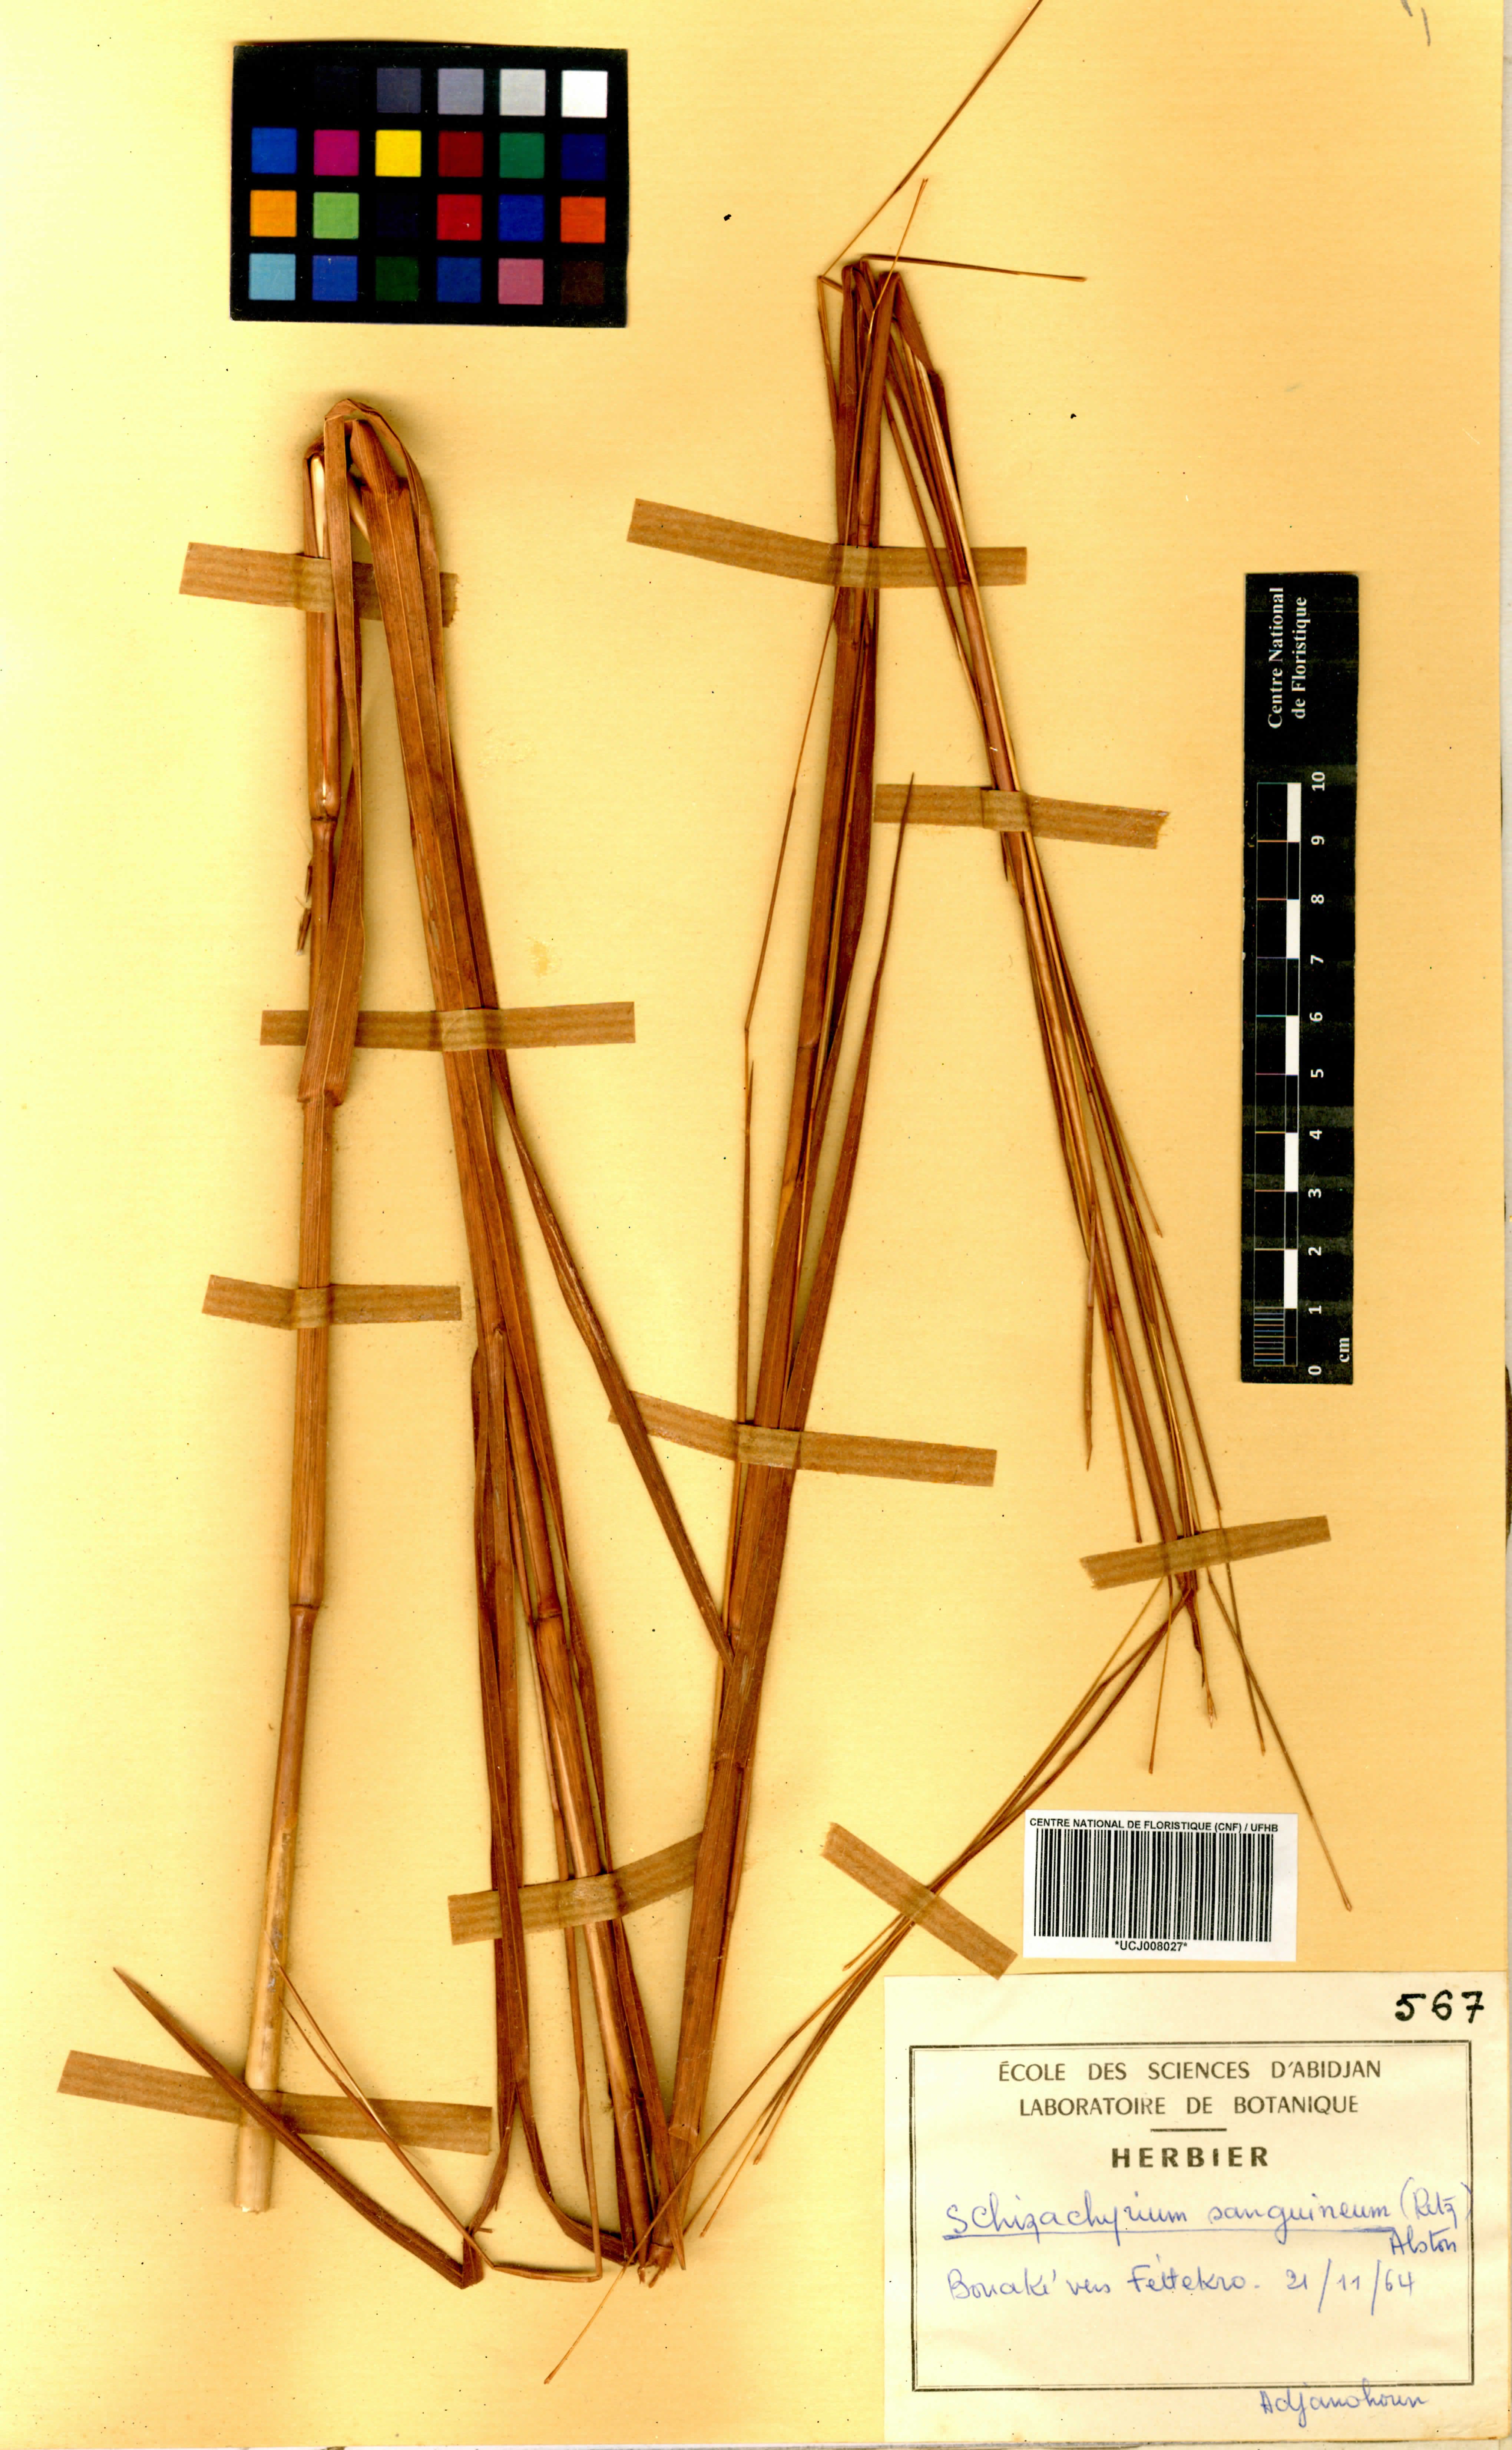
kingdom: Plantae
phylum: Tracheophyta
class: Liliopsida
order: Poales
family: Poaceae
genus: Schizachyrium
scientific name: Schizachyrium sanguineum
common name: Crimson bluestem
